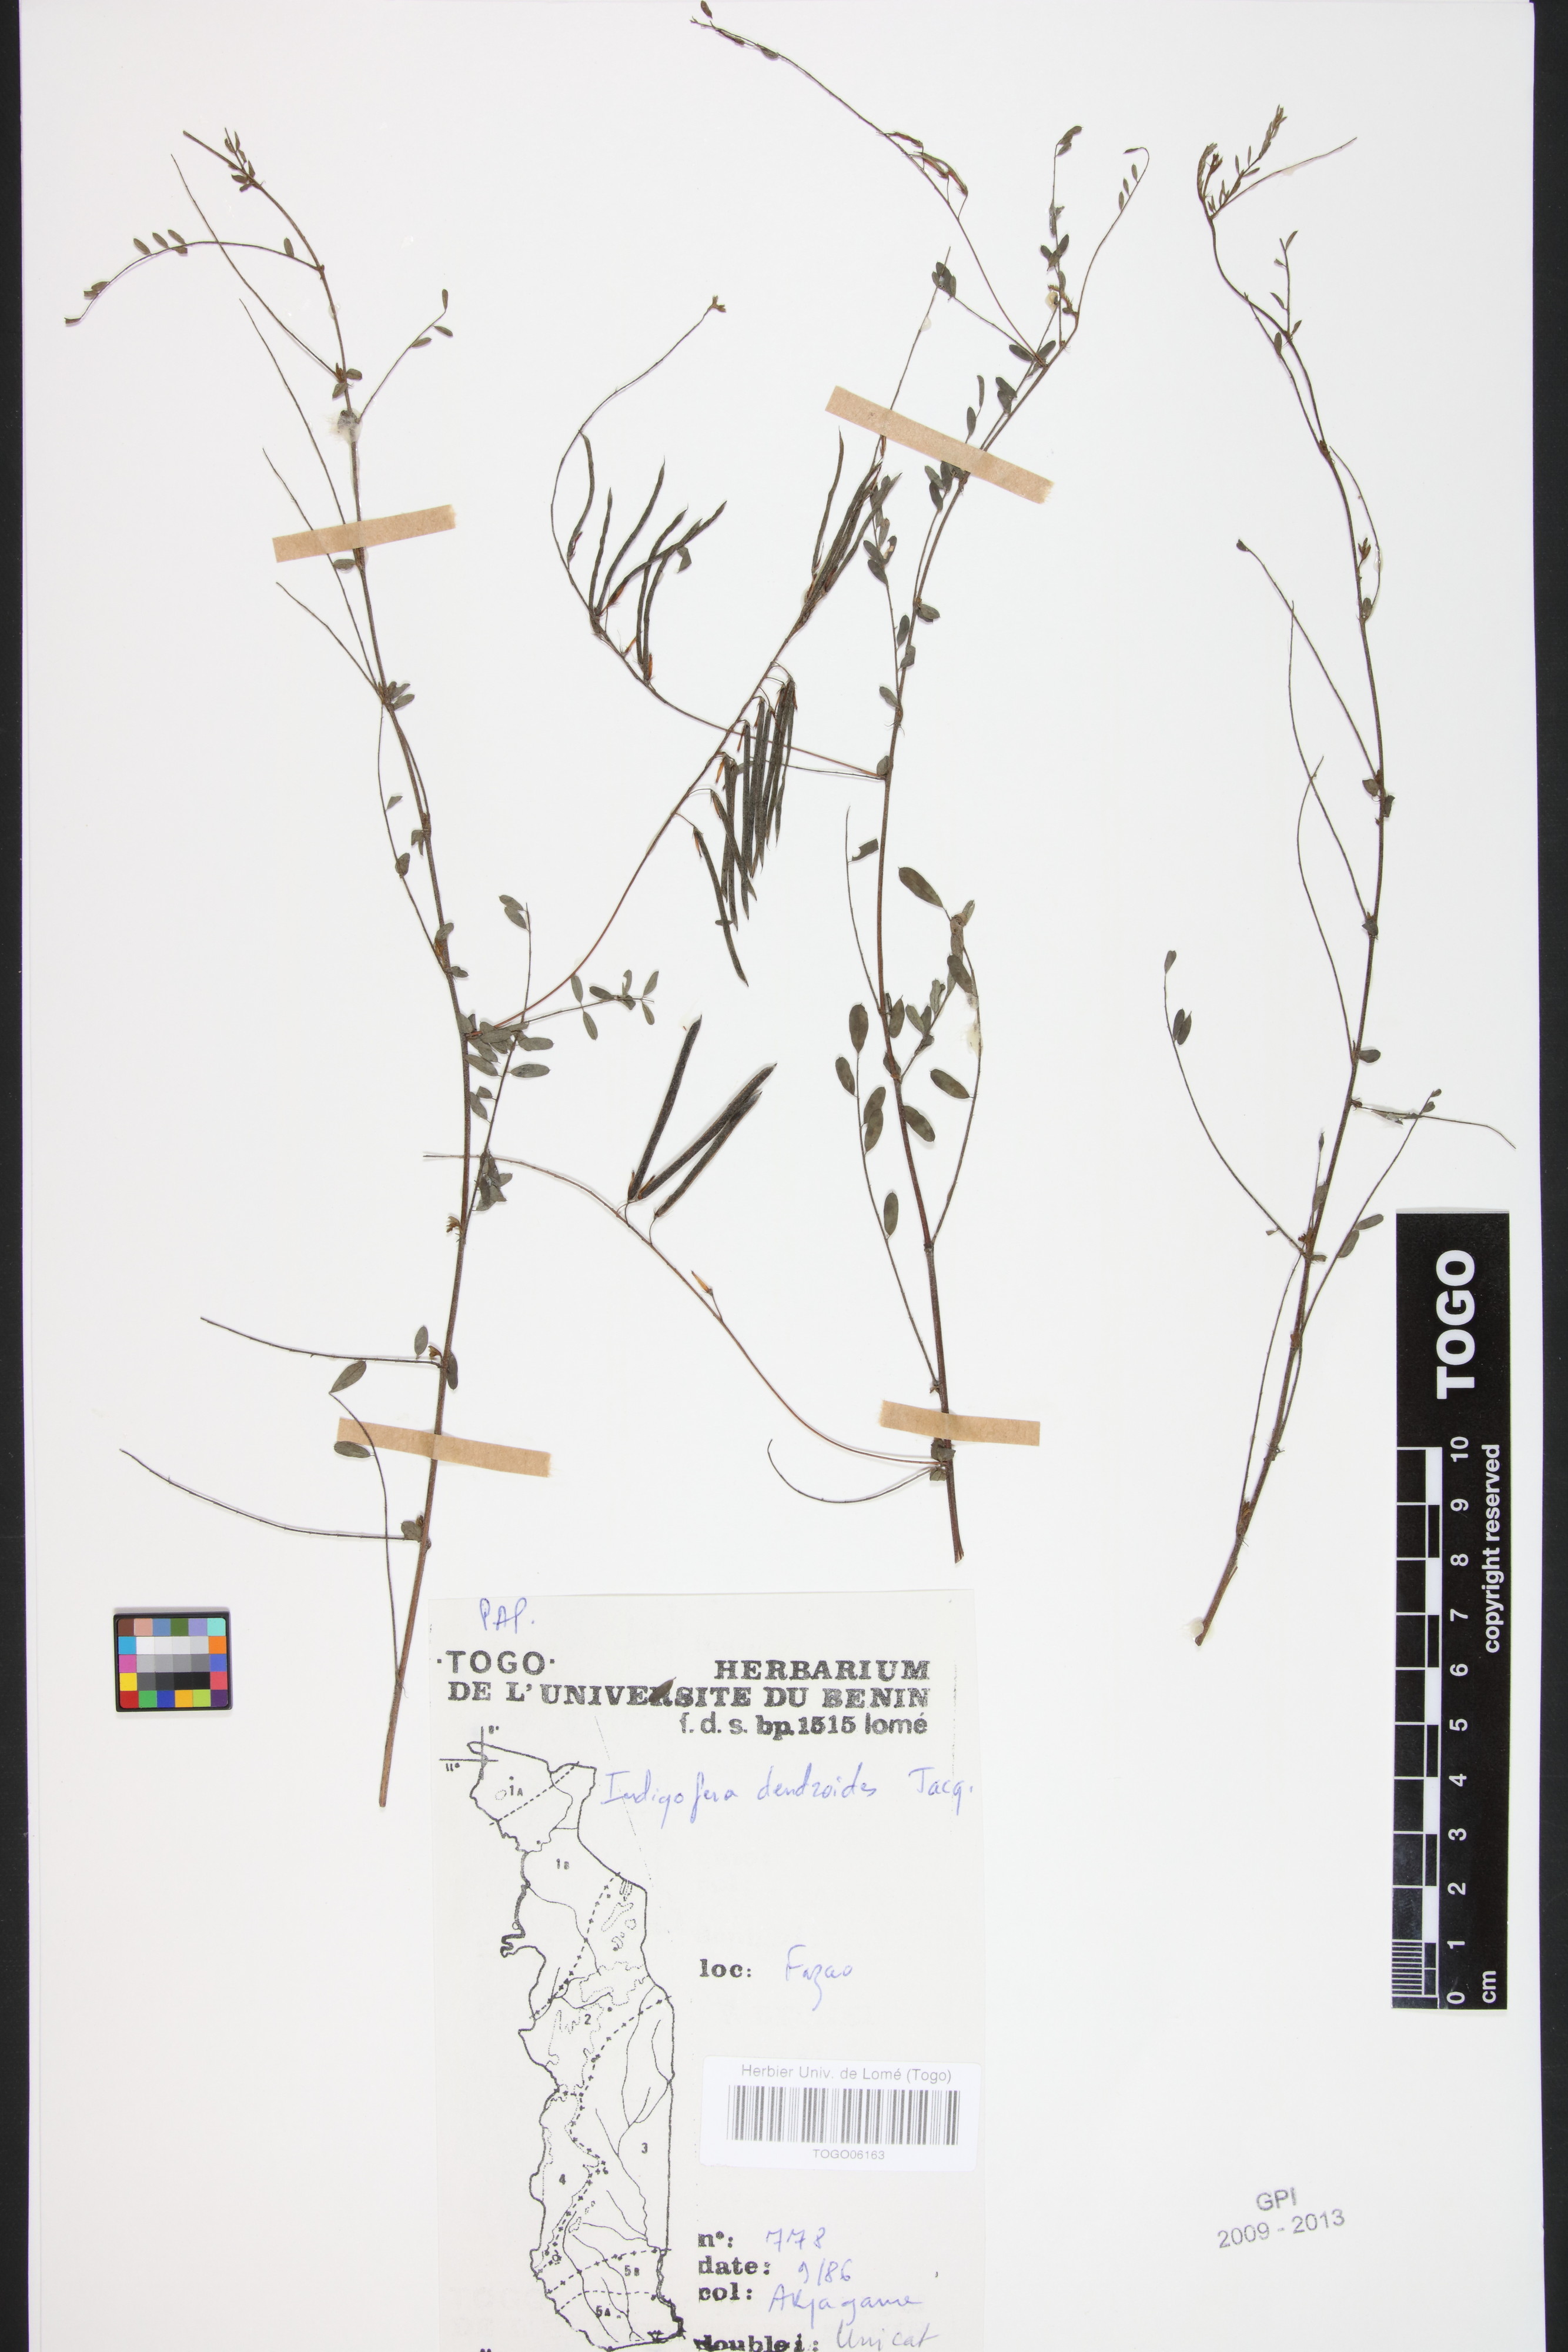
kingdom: Plantae
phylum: Tracheophyta
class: Magnoliopsida
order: Fabales
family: Fabaceae
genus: Indigofera
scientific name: Indigofera dendroides
